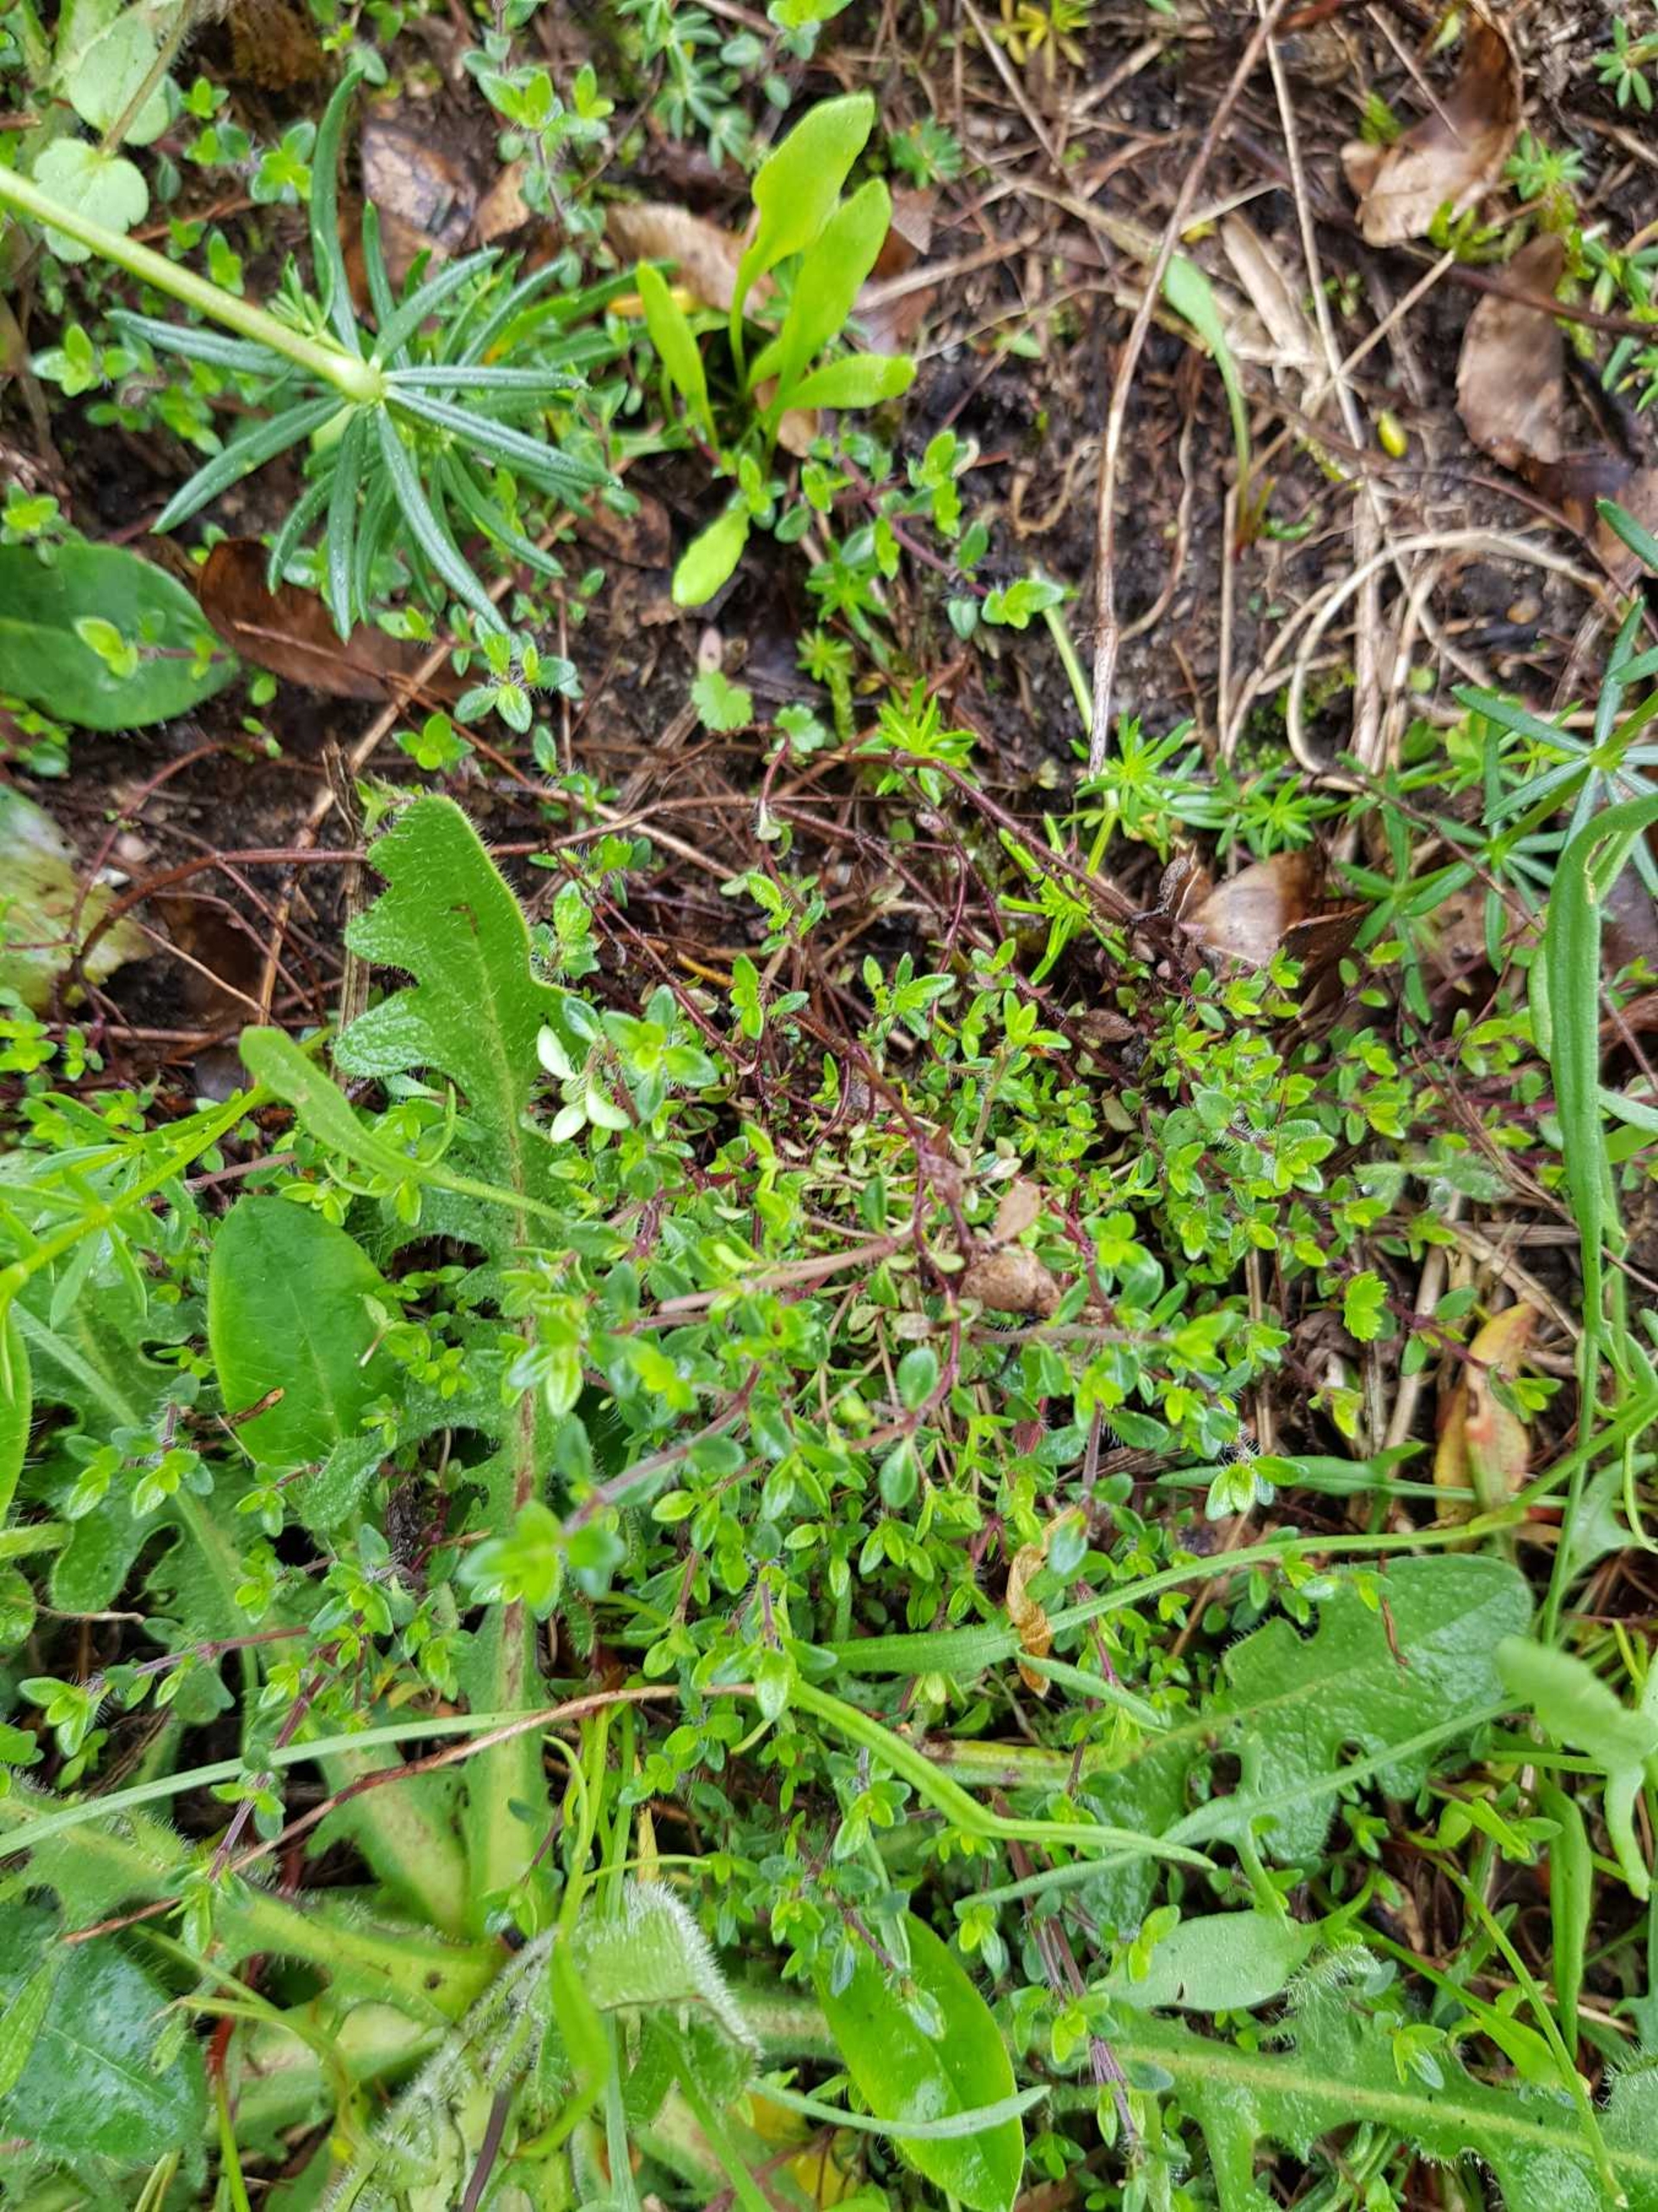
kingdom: Plantae
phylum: Tracheophyta
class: Magnoliopsida
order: Lamiales
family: Lamiaceae
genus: Thymus
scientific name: Thymus serpyllum
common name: Smalbladet timian
